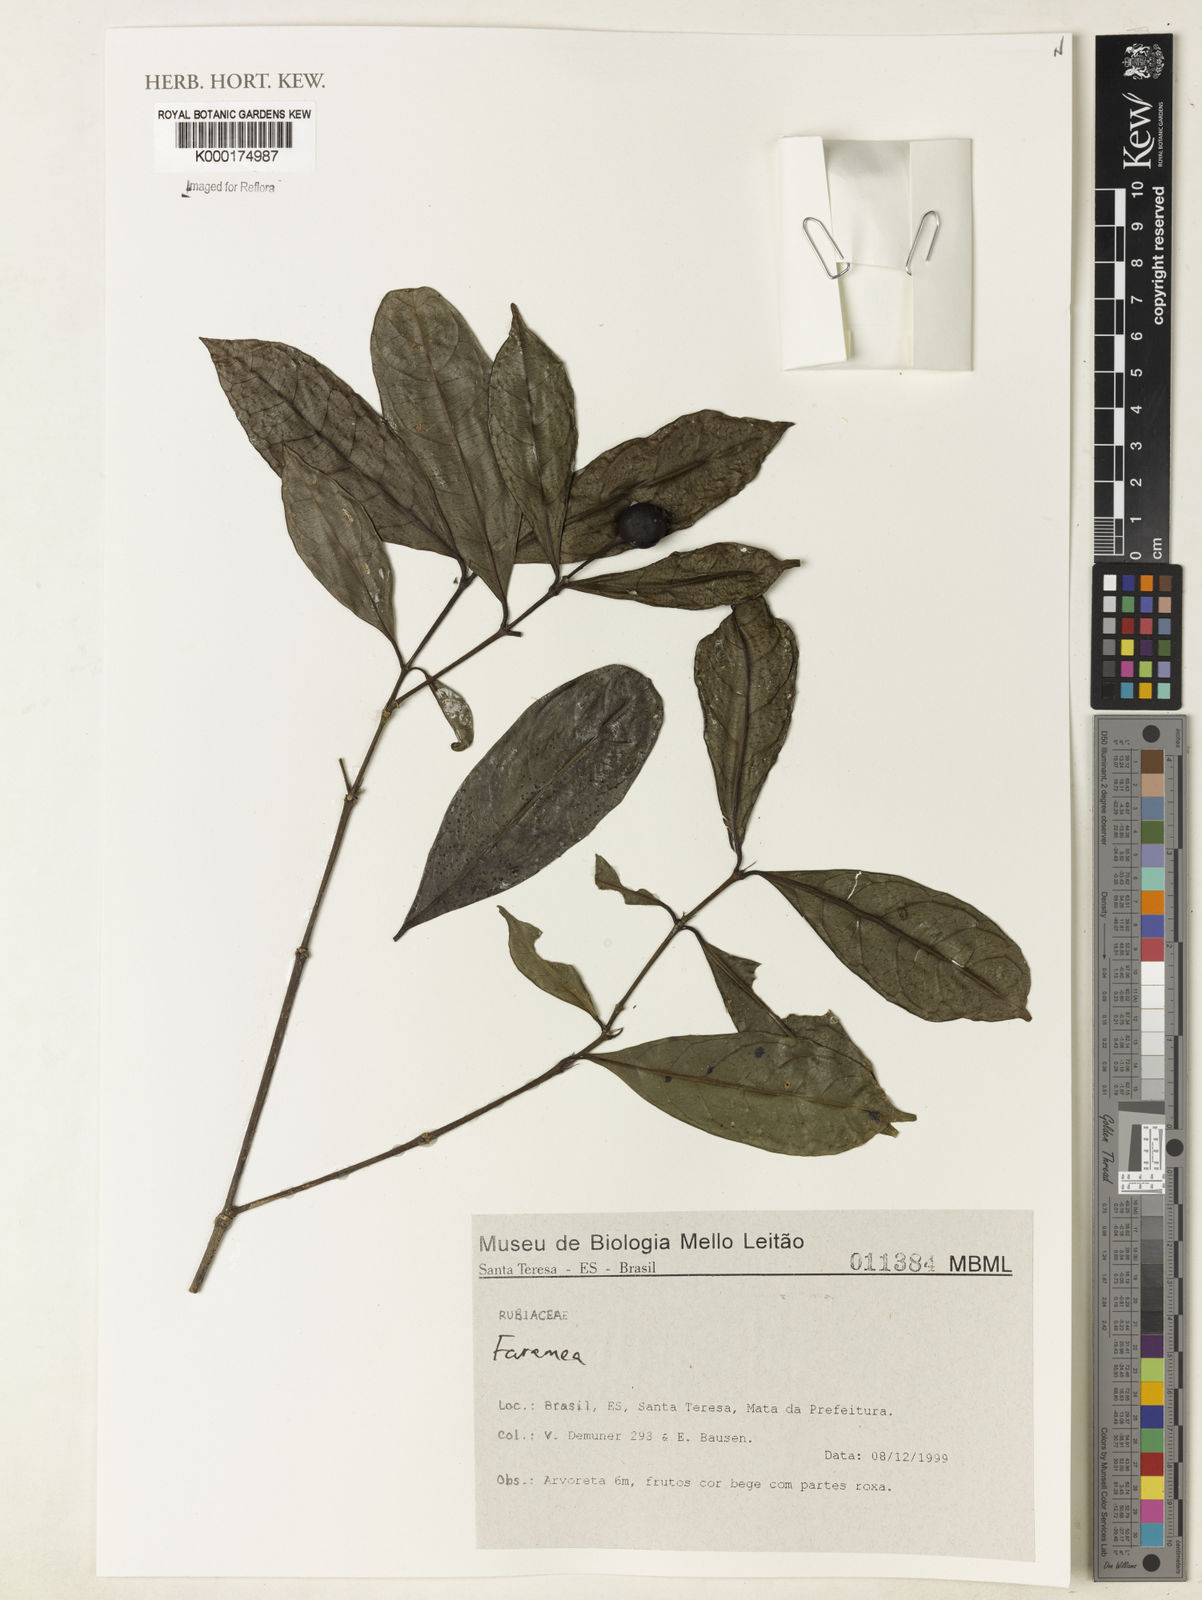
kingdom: Plantae
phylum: Tracheophyta
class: Magnoliopsida
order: Gentianales
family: Rubiaceae
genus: Faramea
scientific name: Faramea
